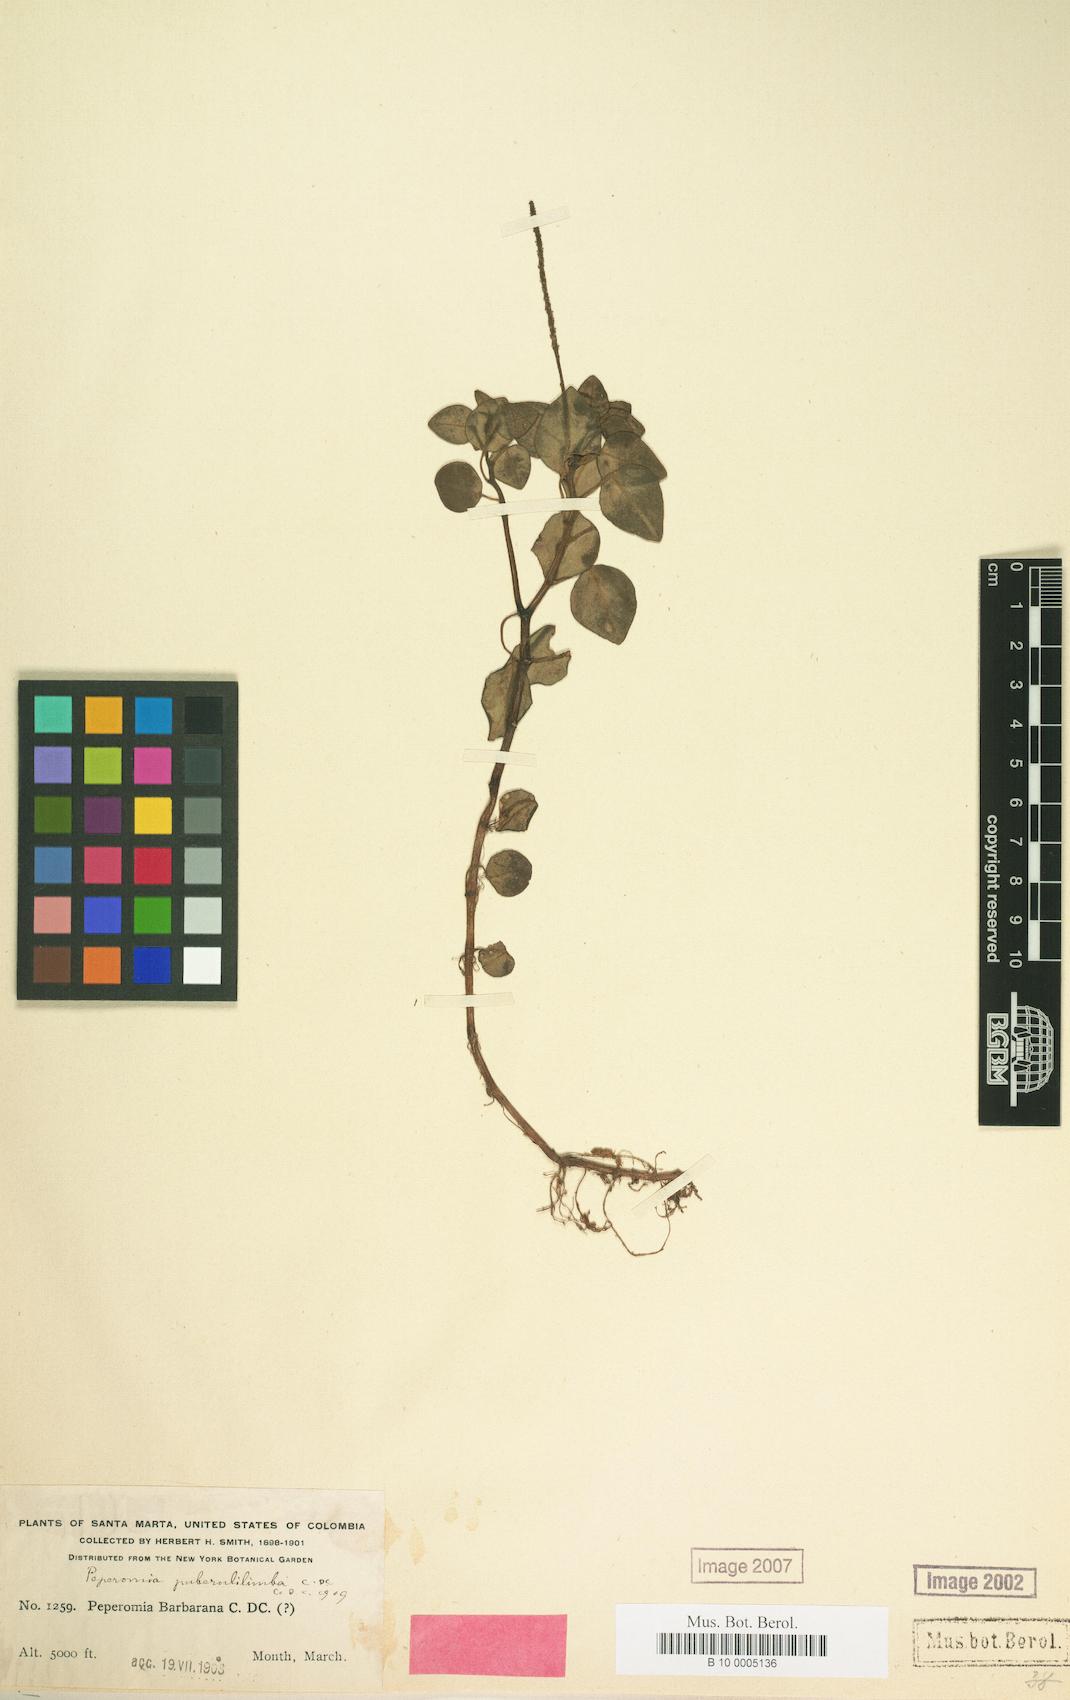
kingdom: Plantae
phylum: Tracheophyta
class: Magnoliopsida
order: Piperales
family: Piperaceae
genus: Peperomia
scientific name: Peperomia puberulilimba
